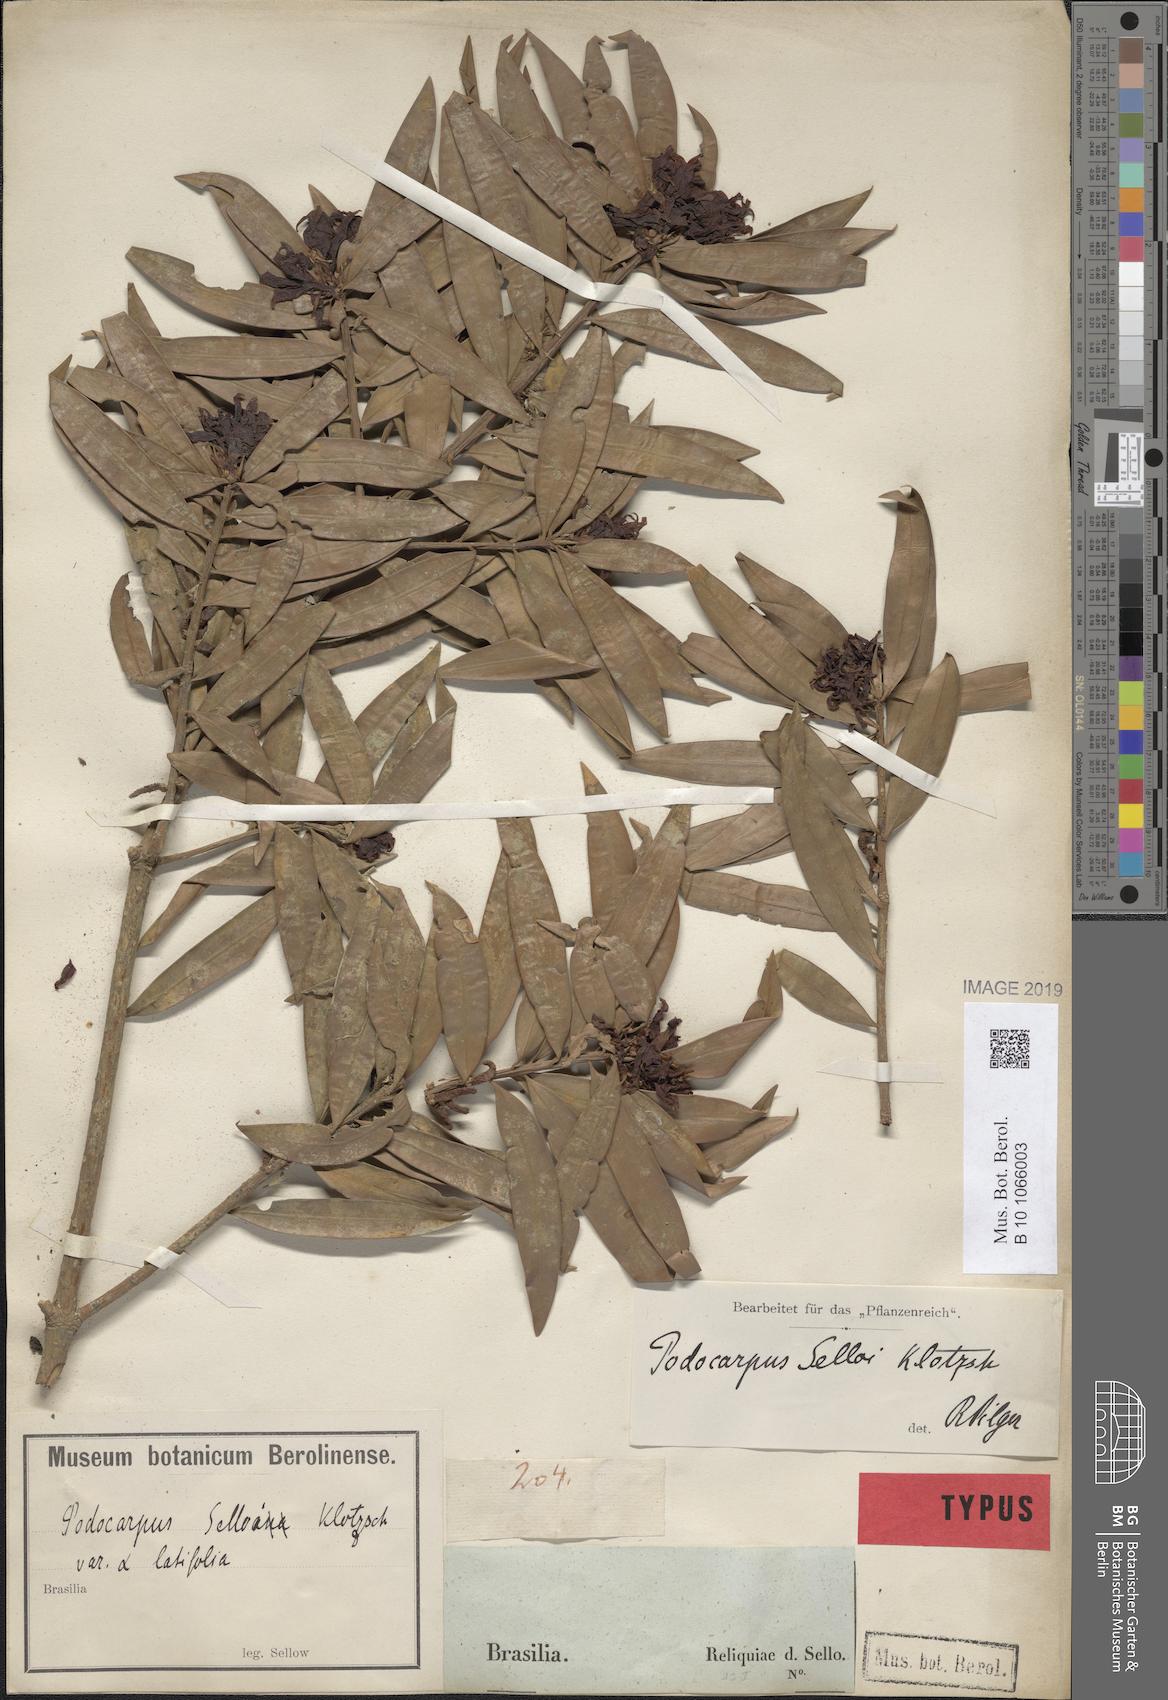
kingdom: Plantae
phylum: Tracheophyta
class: Pinopsida
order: Pinales
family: Podocarpaceae
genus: Podocarpus
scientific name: Podocarpus sellowii
